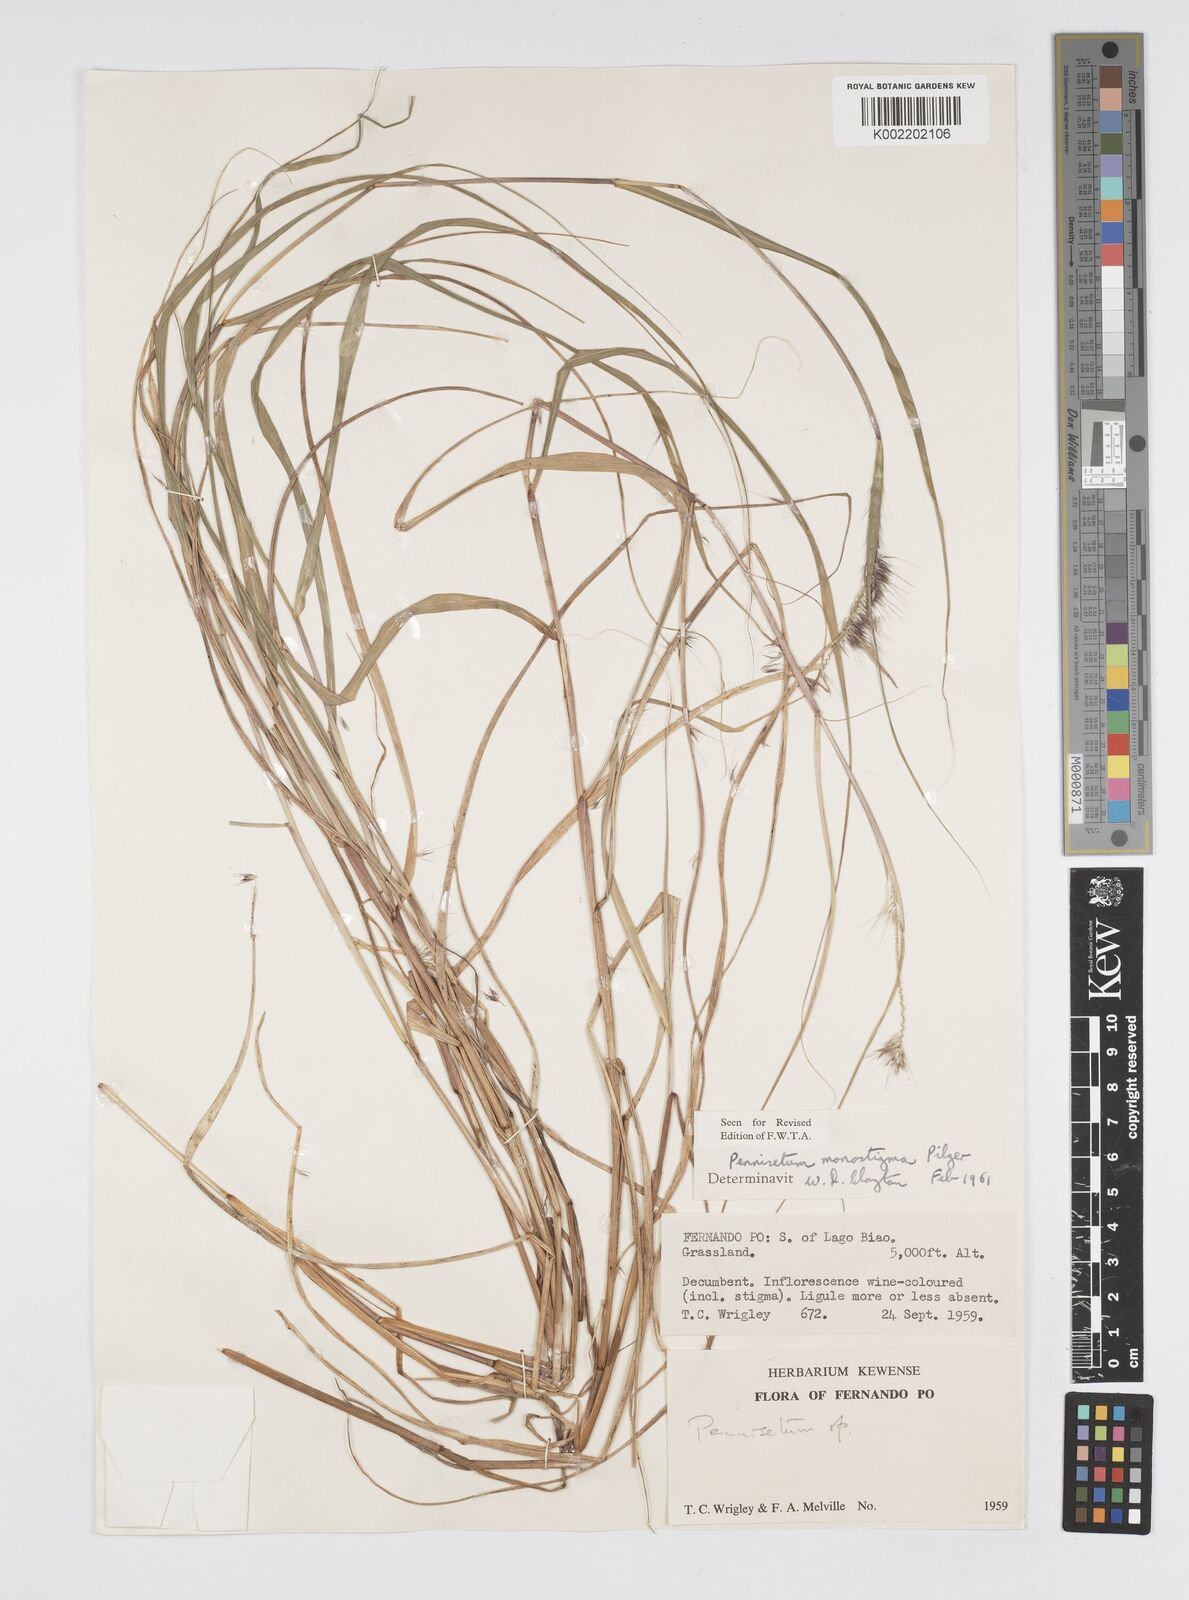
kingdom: Plantae
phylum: Tracheophyta
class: Liliopsida
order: Poales
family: Poaceae
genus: Cenchrus
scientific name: Cenchrus monostigma
